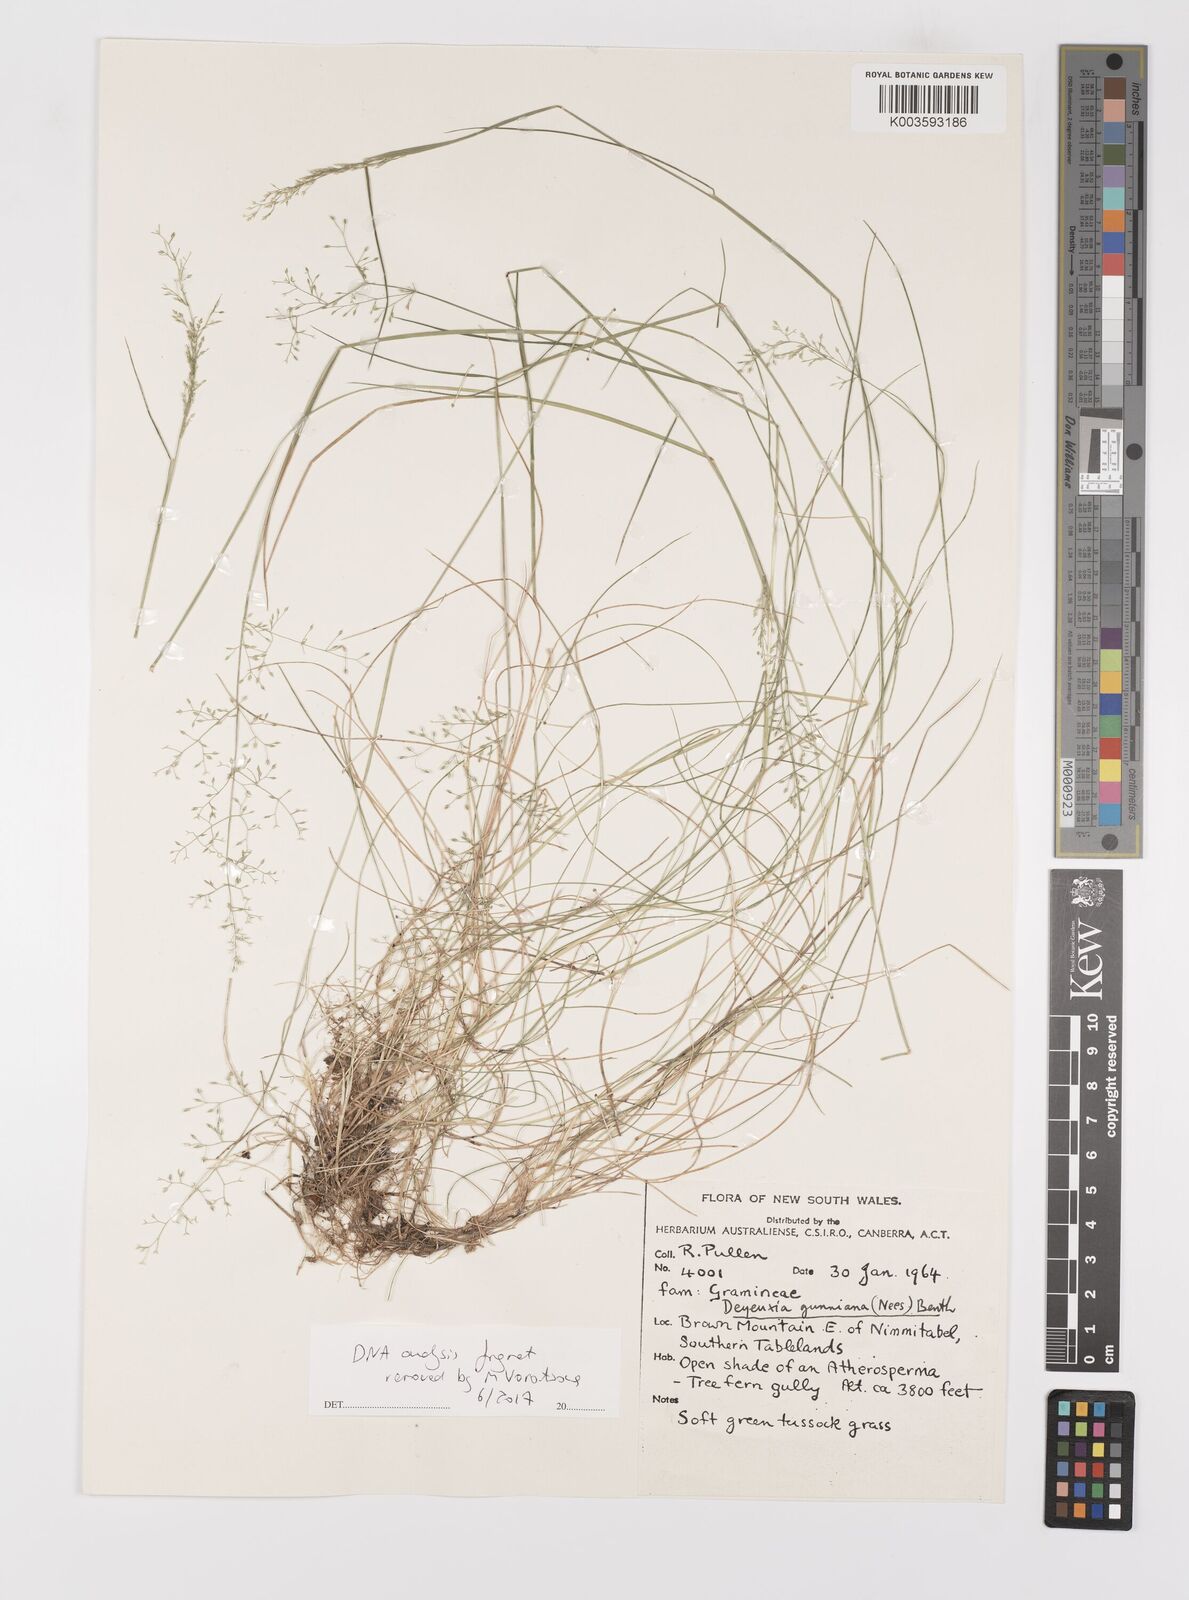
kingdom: Plantae
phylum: Tracheophyta
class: Liliopsida
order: Poales
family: Poaceae
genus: Ancistragrostis
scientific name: Ancistragrostis
